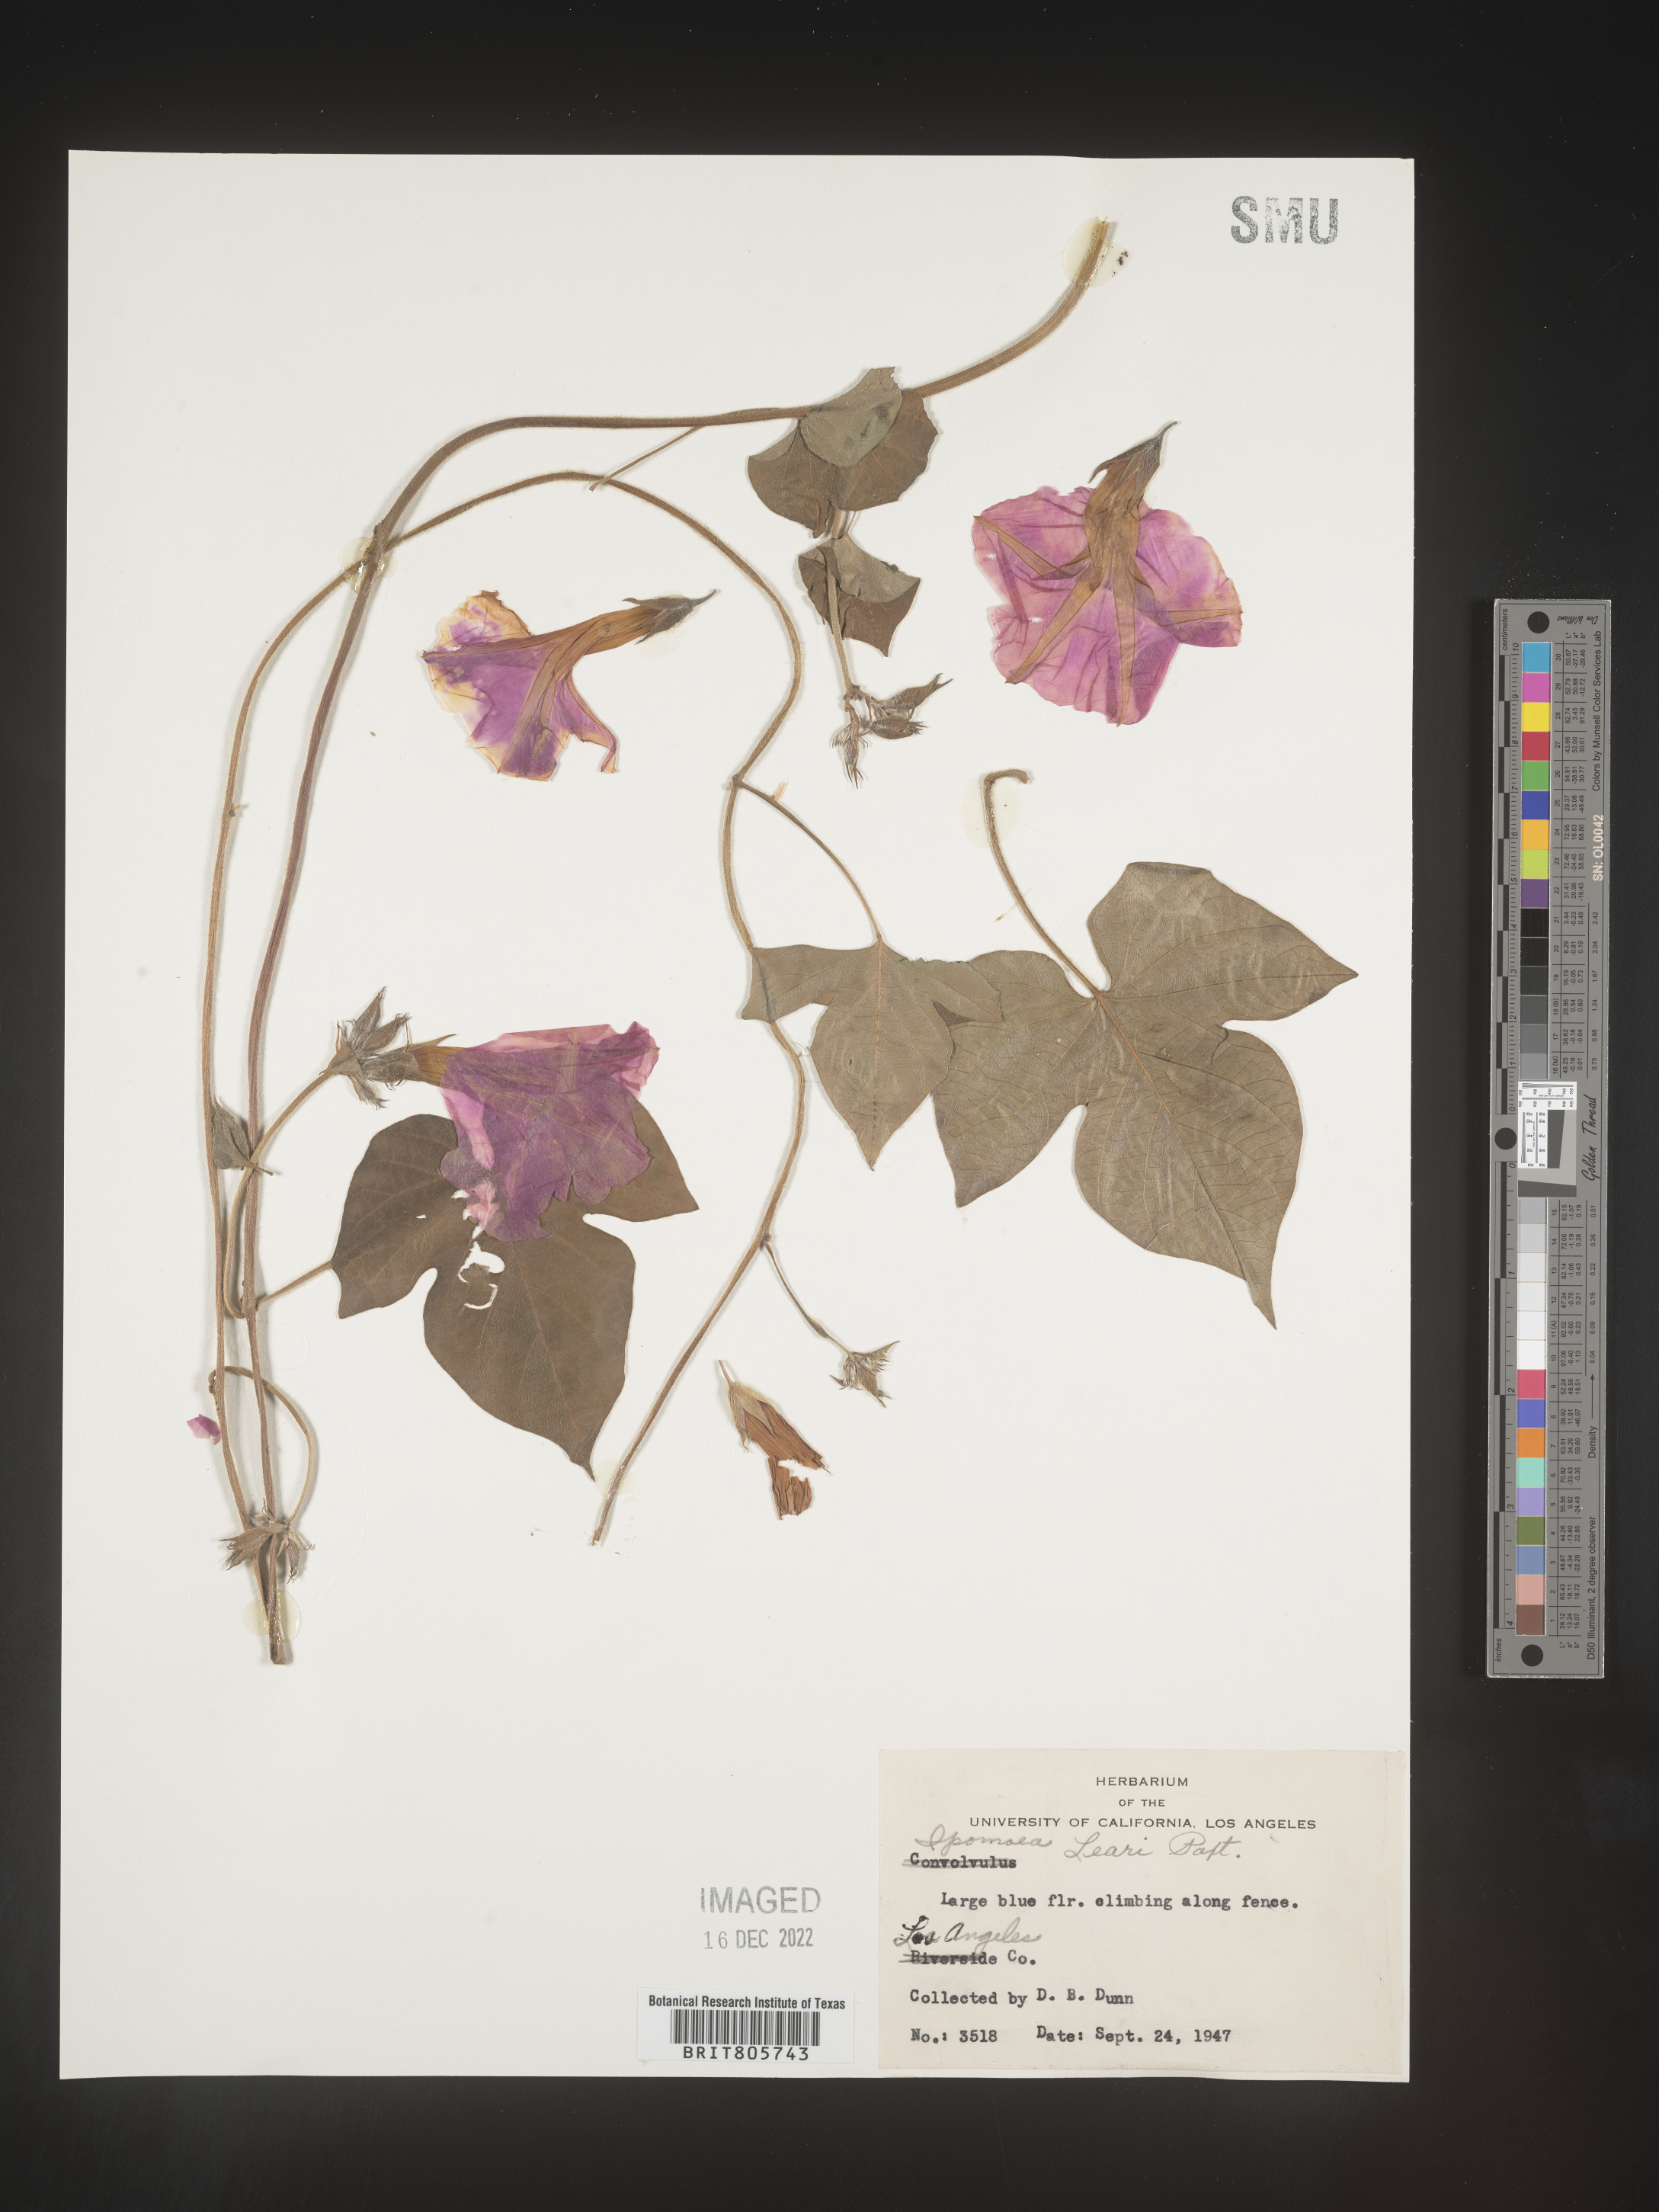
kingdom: Plantae
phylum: Tracheophyta
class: Magnoliopsida
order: Solanales
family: Convolvulaceae
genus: Ipomoea
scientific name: Ipomoea coccinea
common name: Red morning-glory
